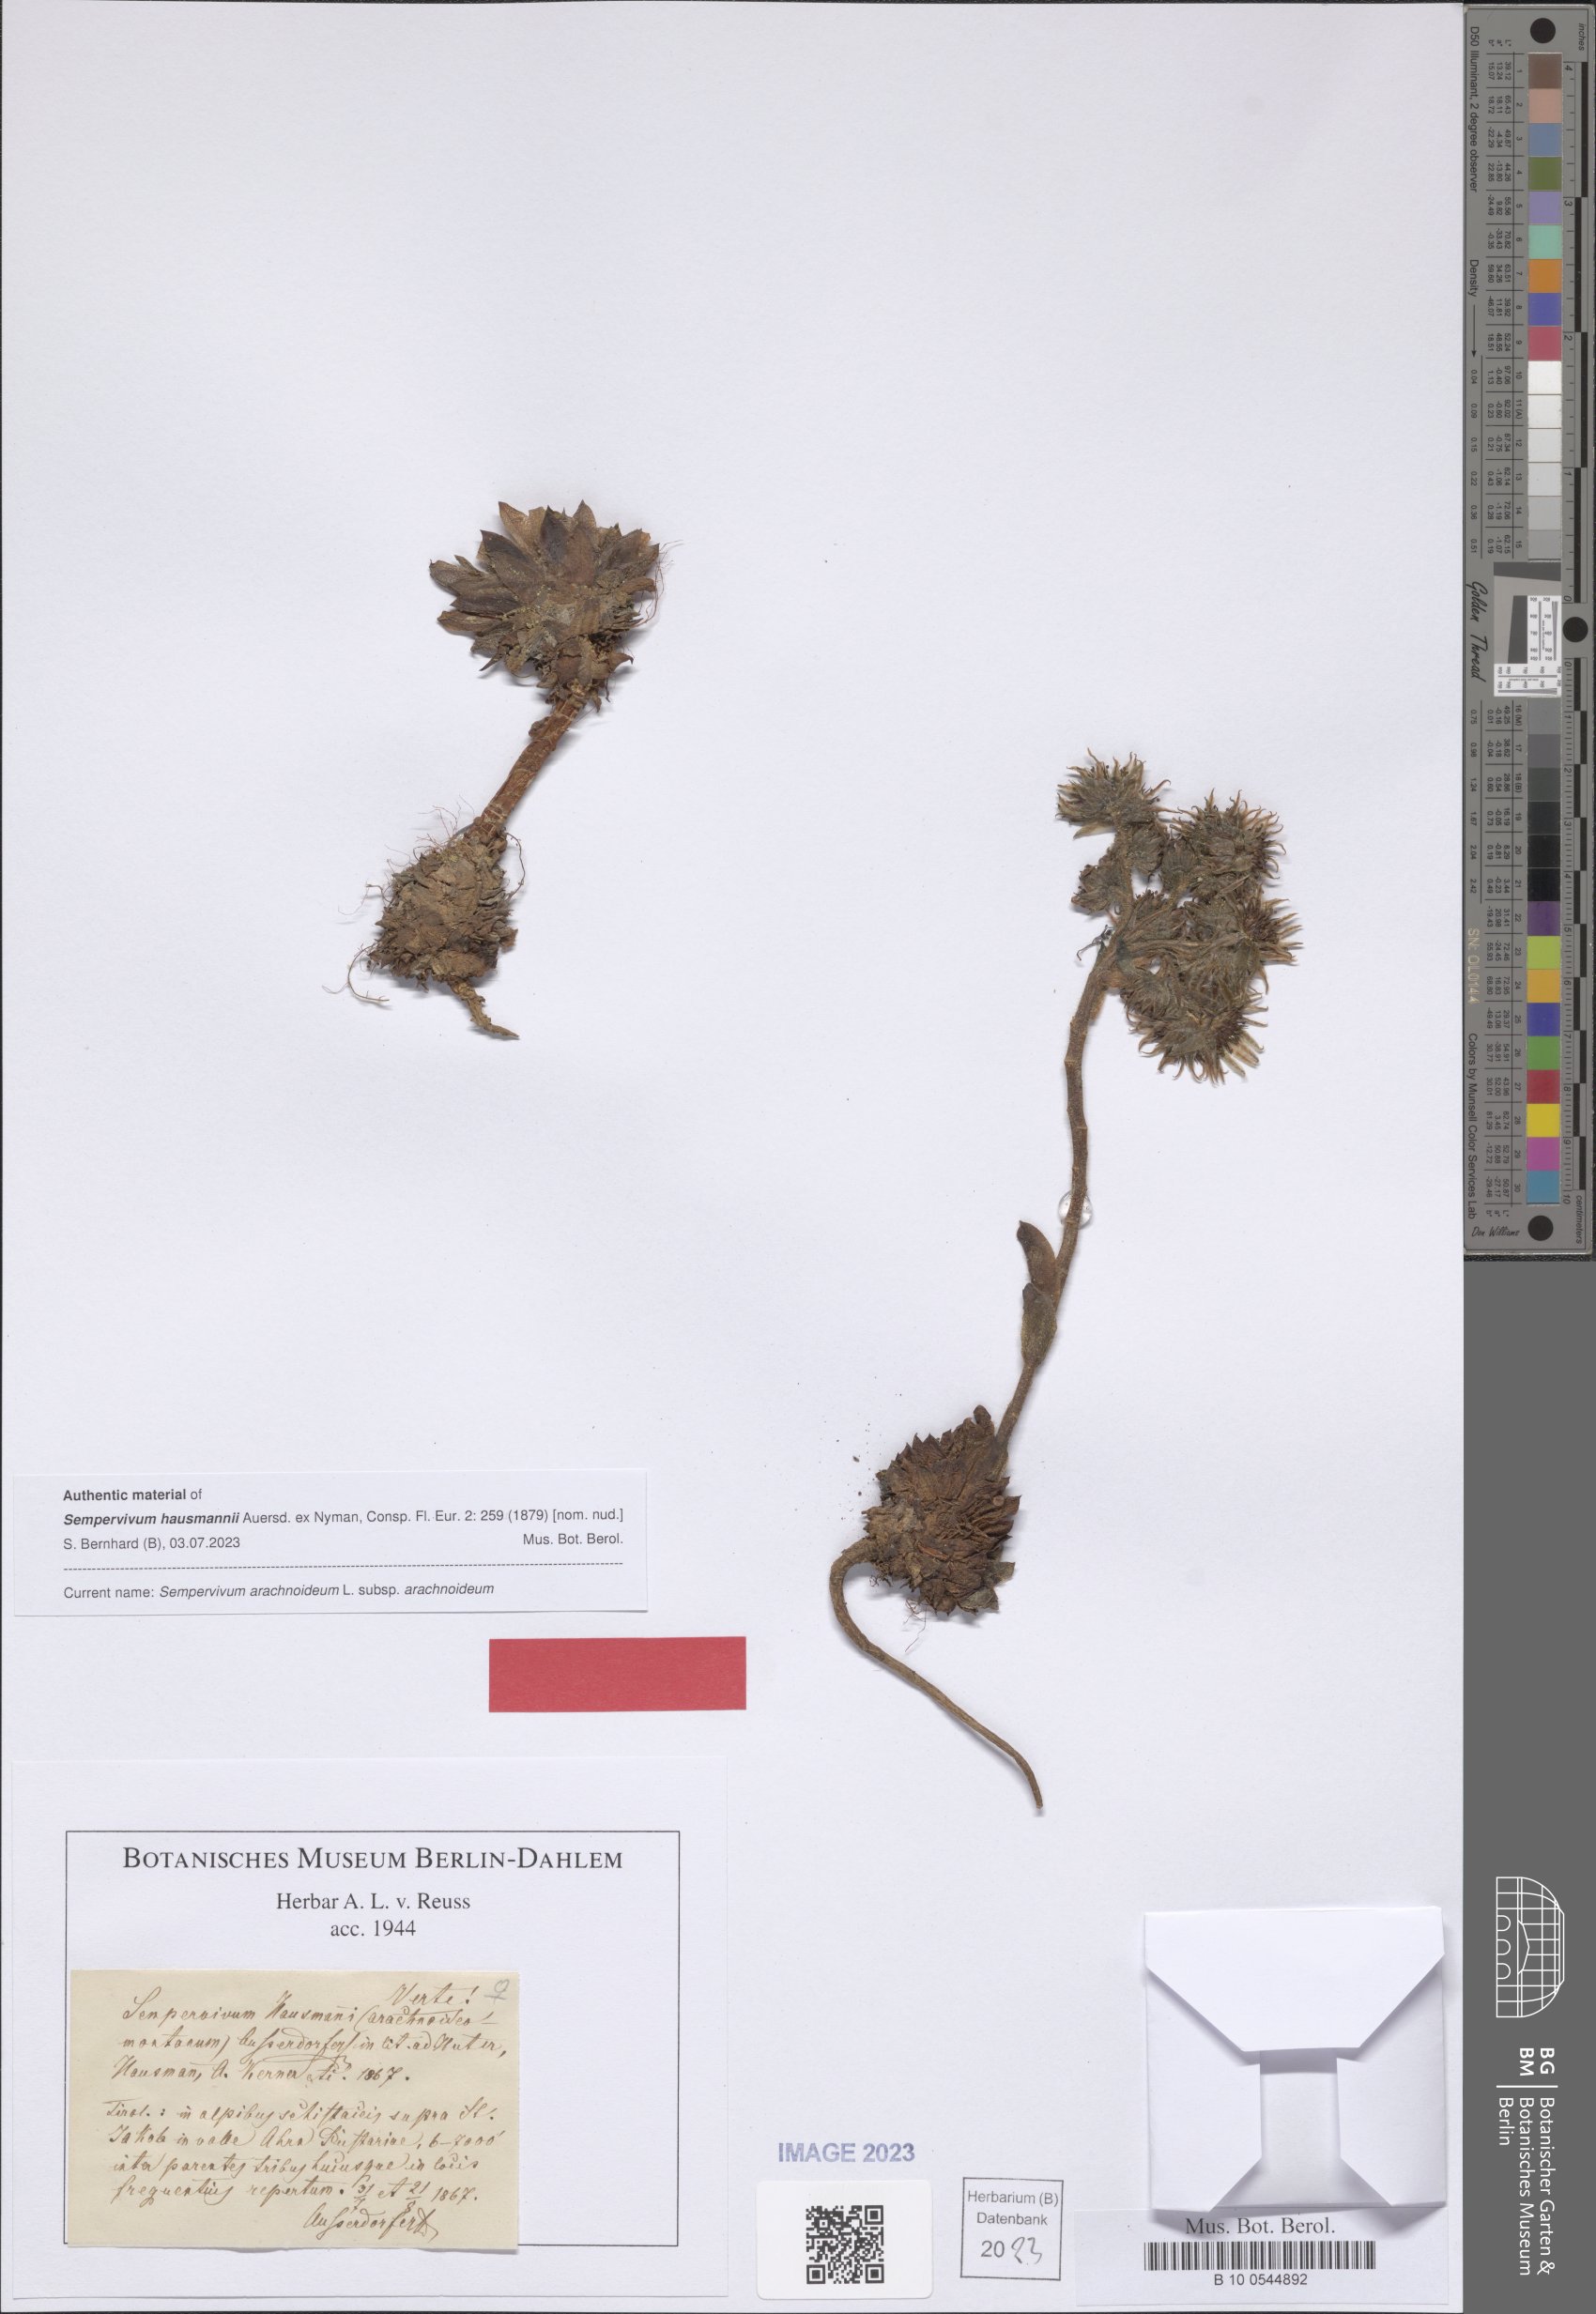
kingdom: Plantae
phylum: Tracheophyta
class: Magnoliopsida
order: Saxifragales
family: Crassulaceae
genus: Sempervivum
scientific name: Sempervivum arachnoideum
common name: Cobweb house-leek
